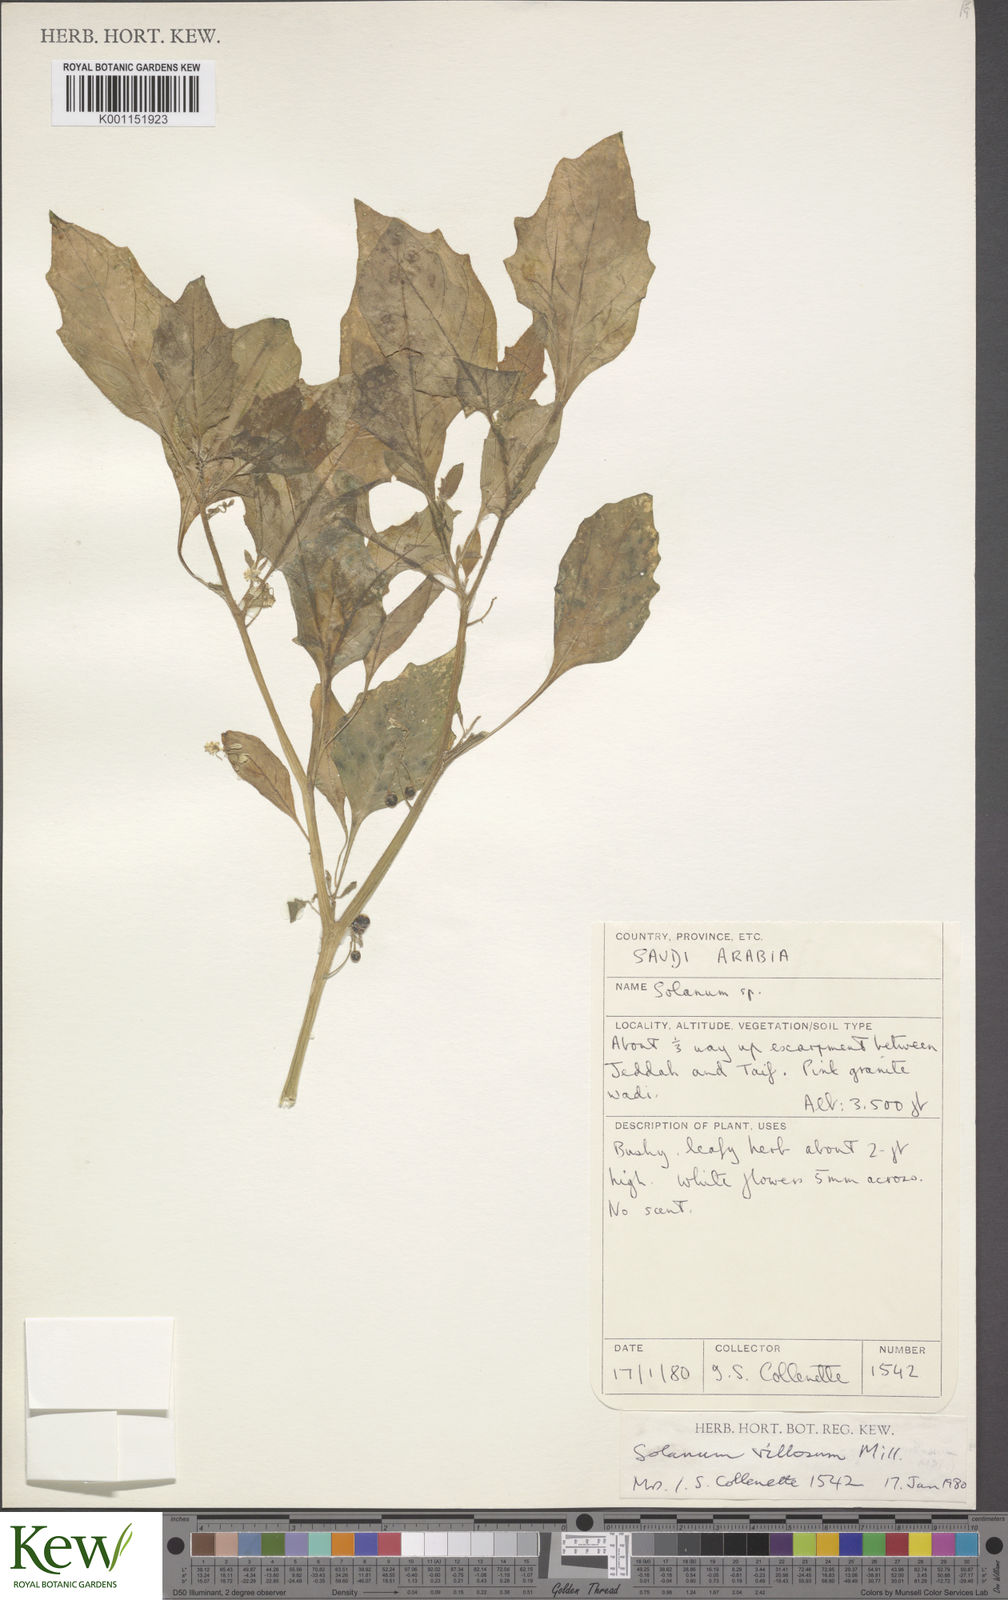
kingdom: Plantae
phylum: Tracheophyta
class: Magnoliopsida
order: Solanales
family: Solanaceae
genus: Solanum
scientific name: Solanum villosum
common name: Red nightshade
